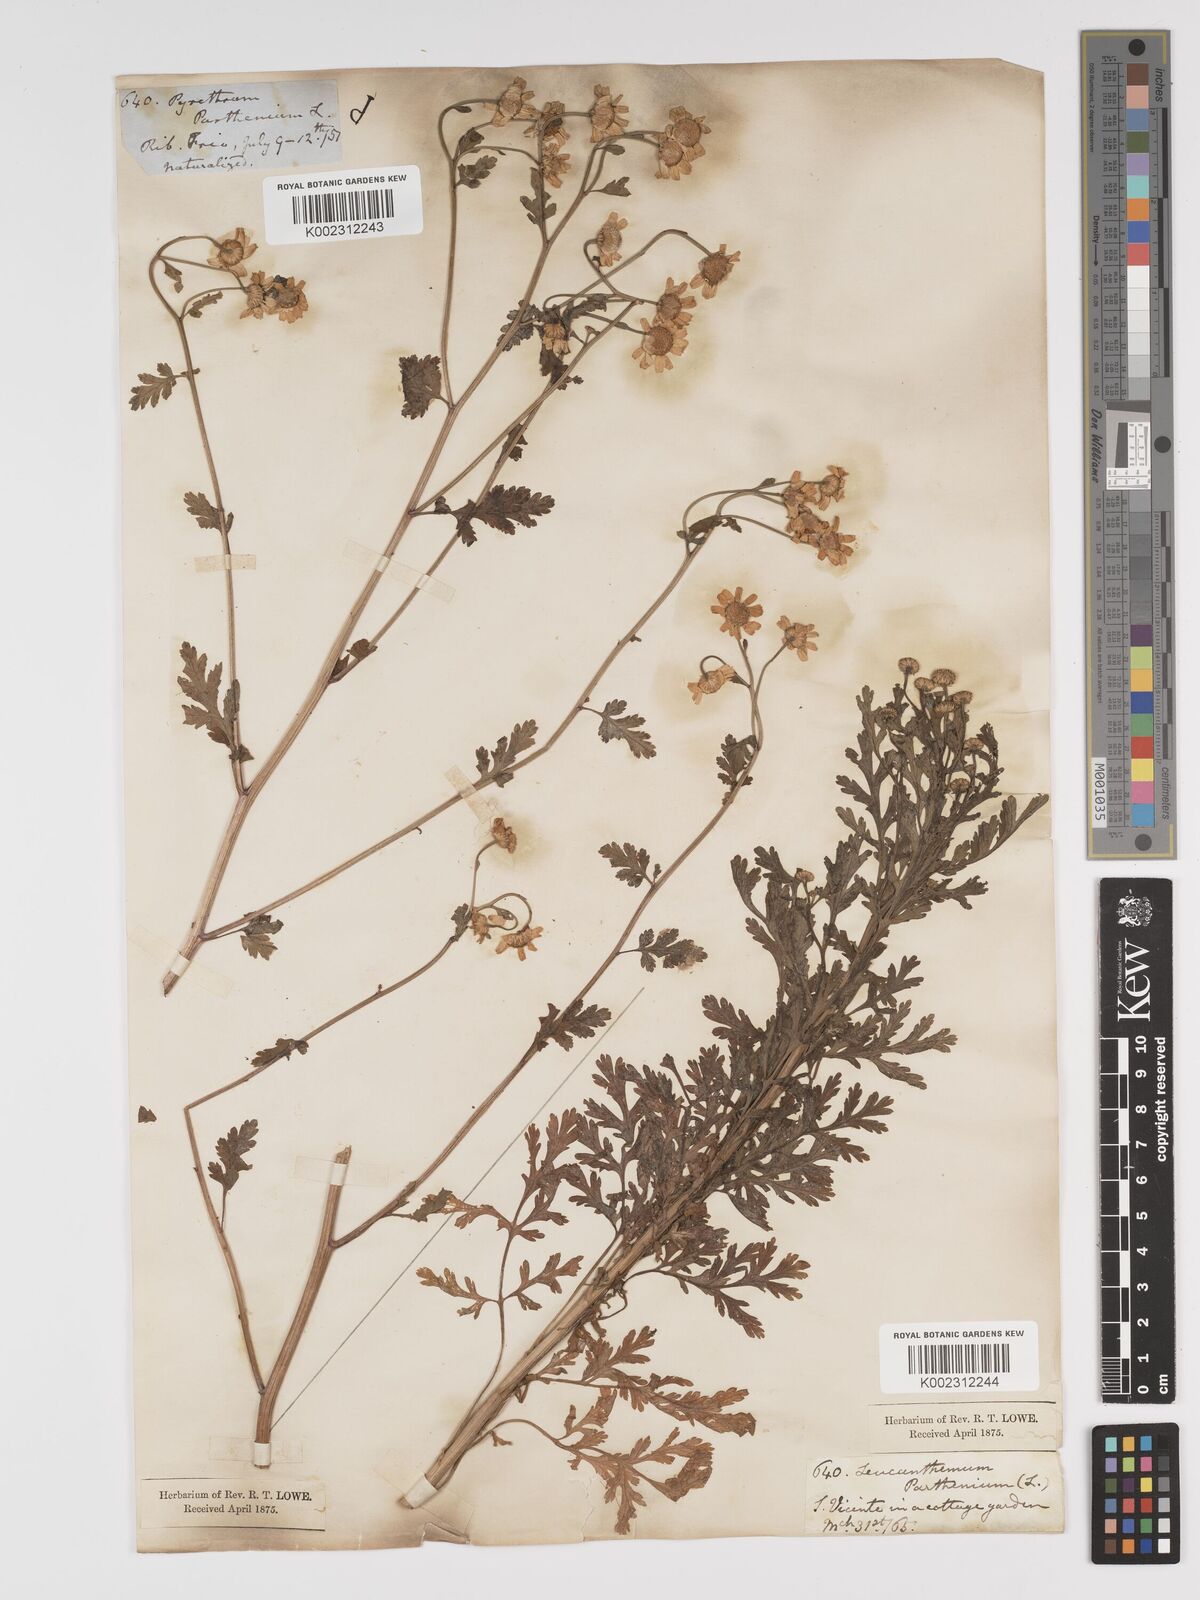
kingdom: Plantae
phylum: Tracheophyta
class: Magnoliopsida
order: Asterales
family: Asteraceae
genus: Tanacetum
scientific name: Tanacetum parthenium
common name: Feverfew
